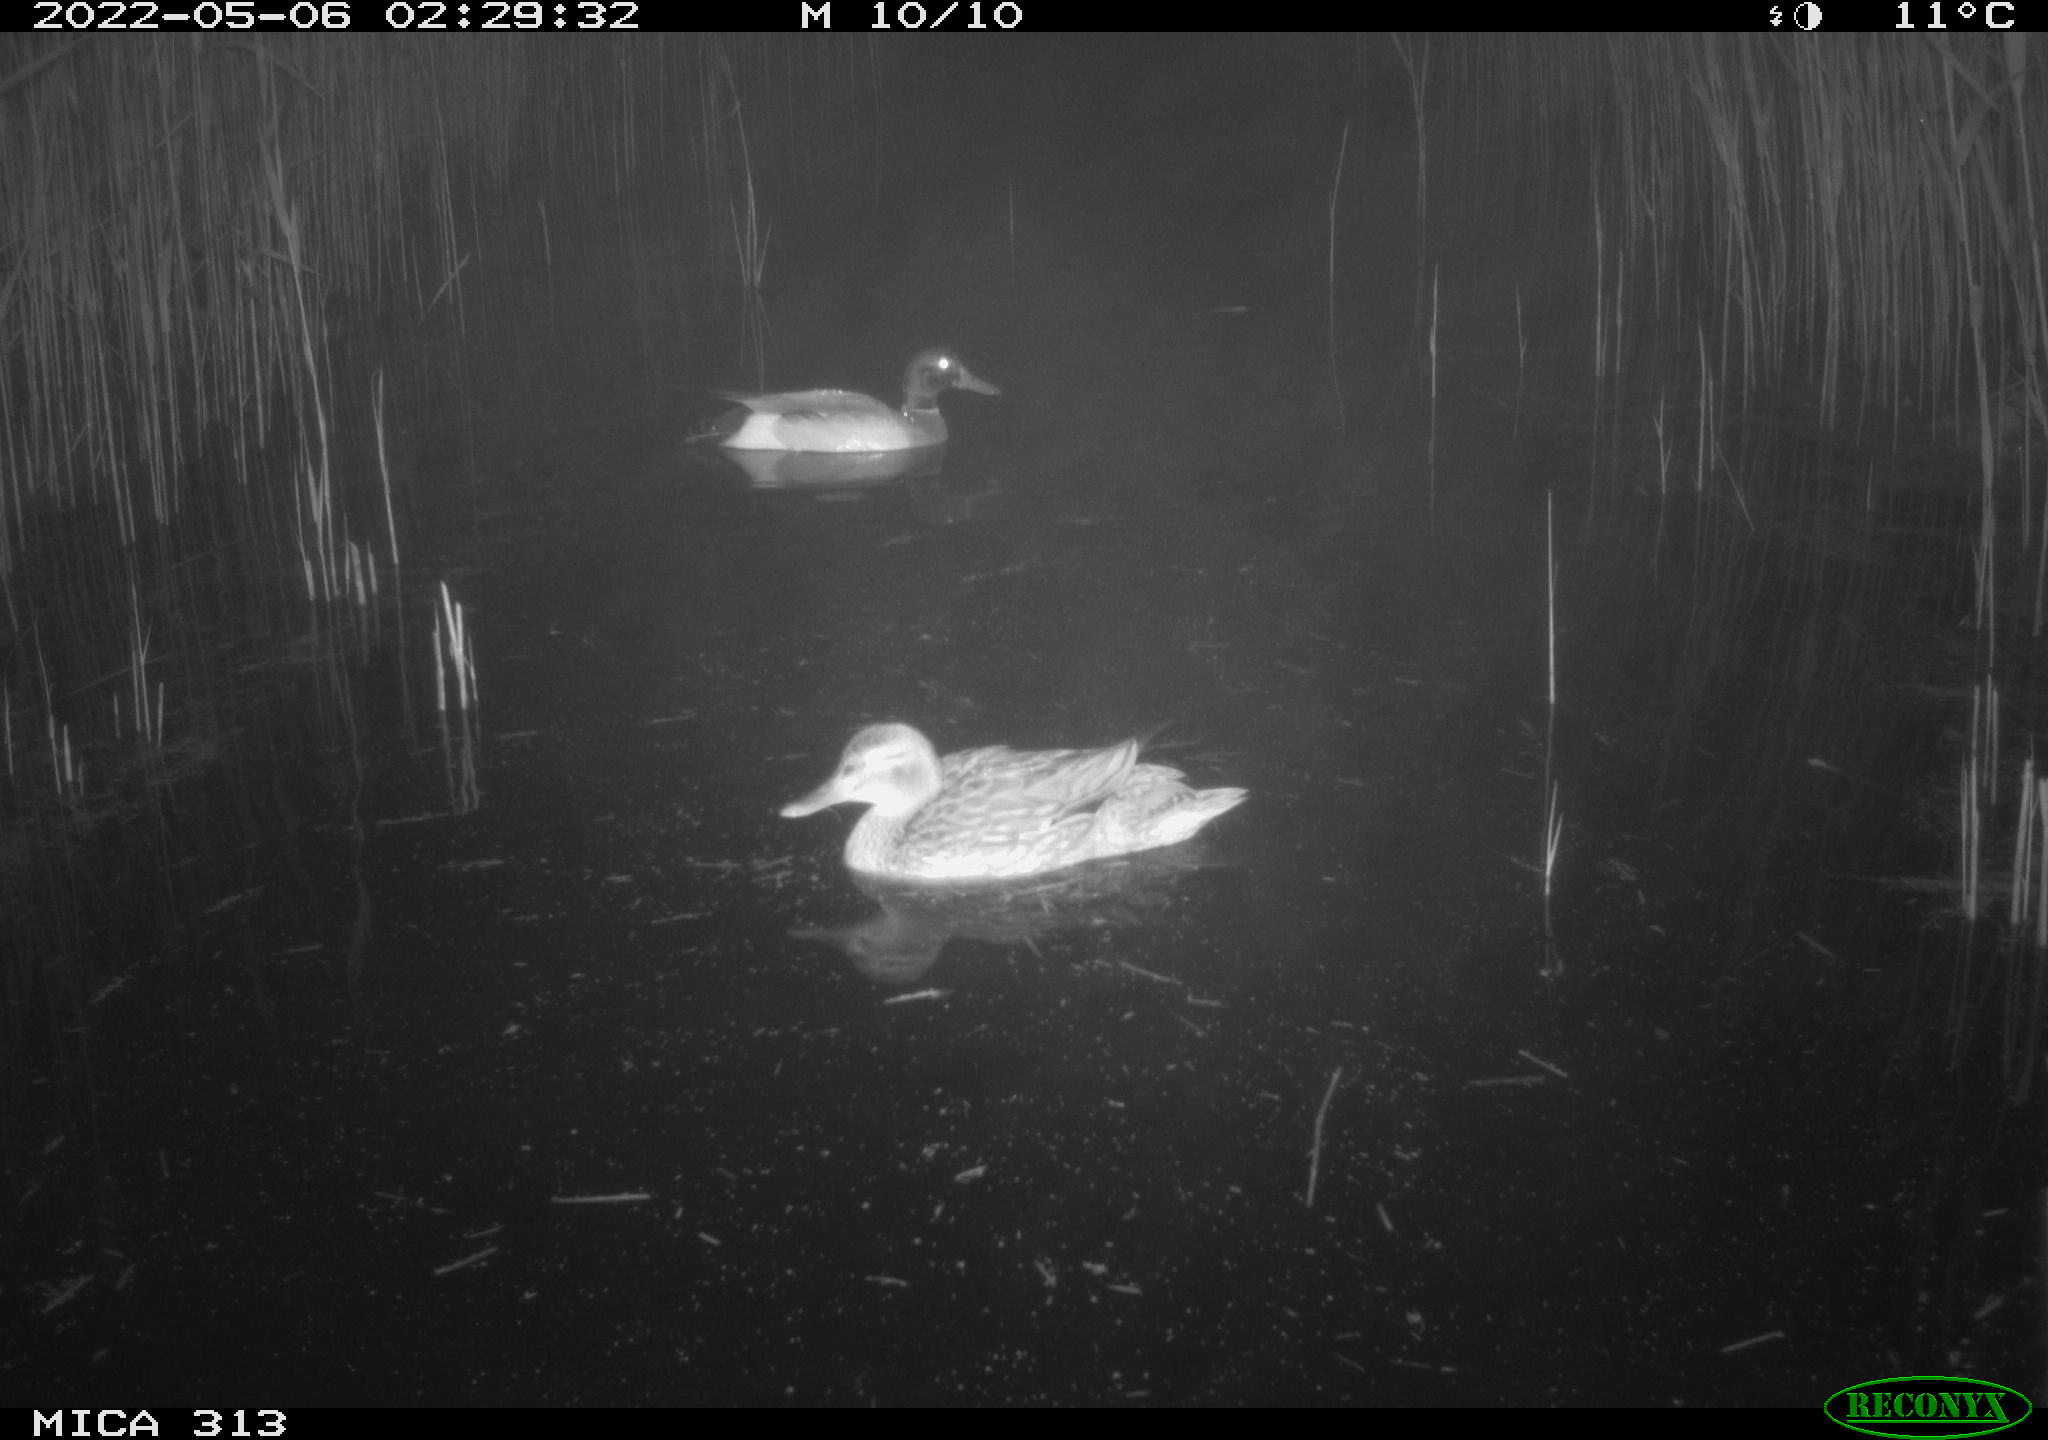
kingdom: Animalia
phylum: Chordata
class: Aves
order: Anseriformes
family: Anatidae
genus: Anas
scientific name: Anas platyrhynchos
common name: Mallard
